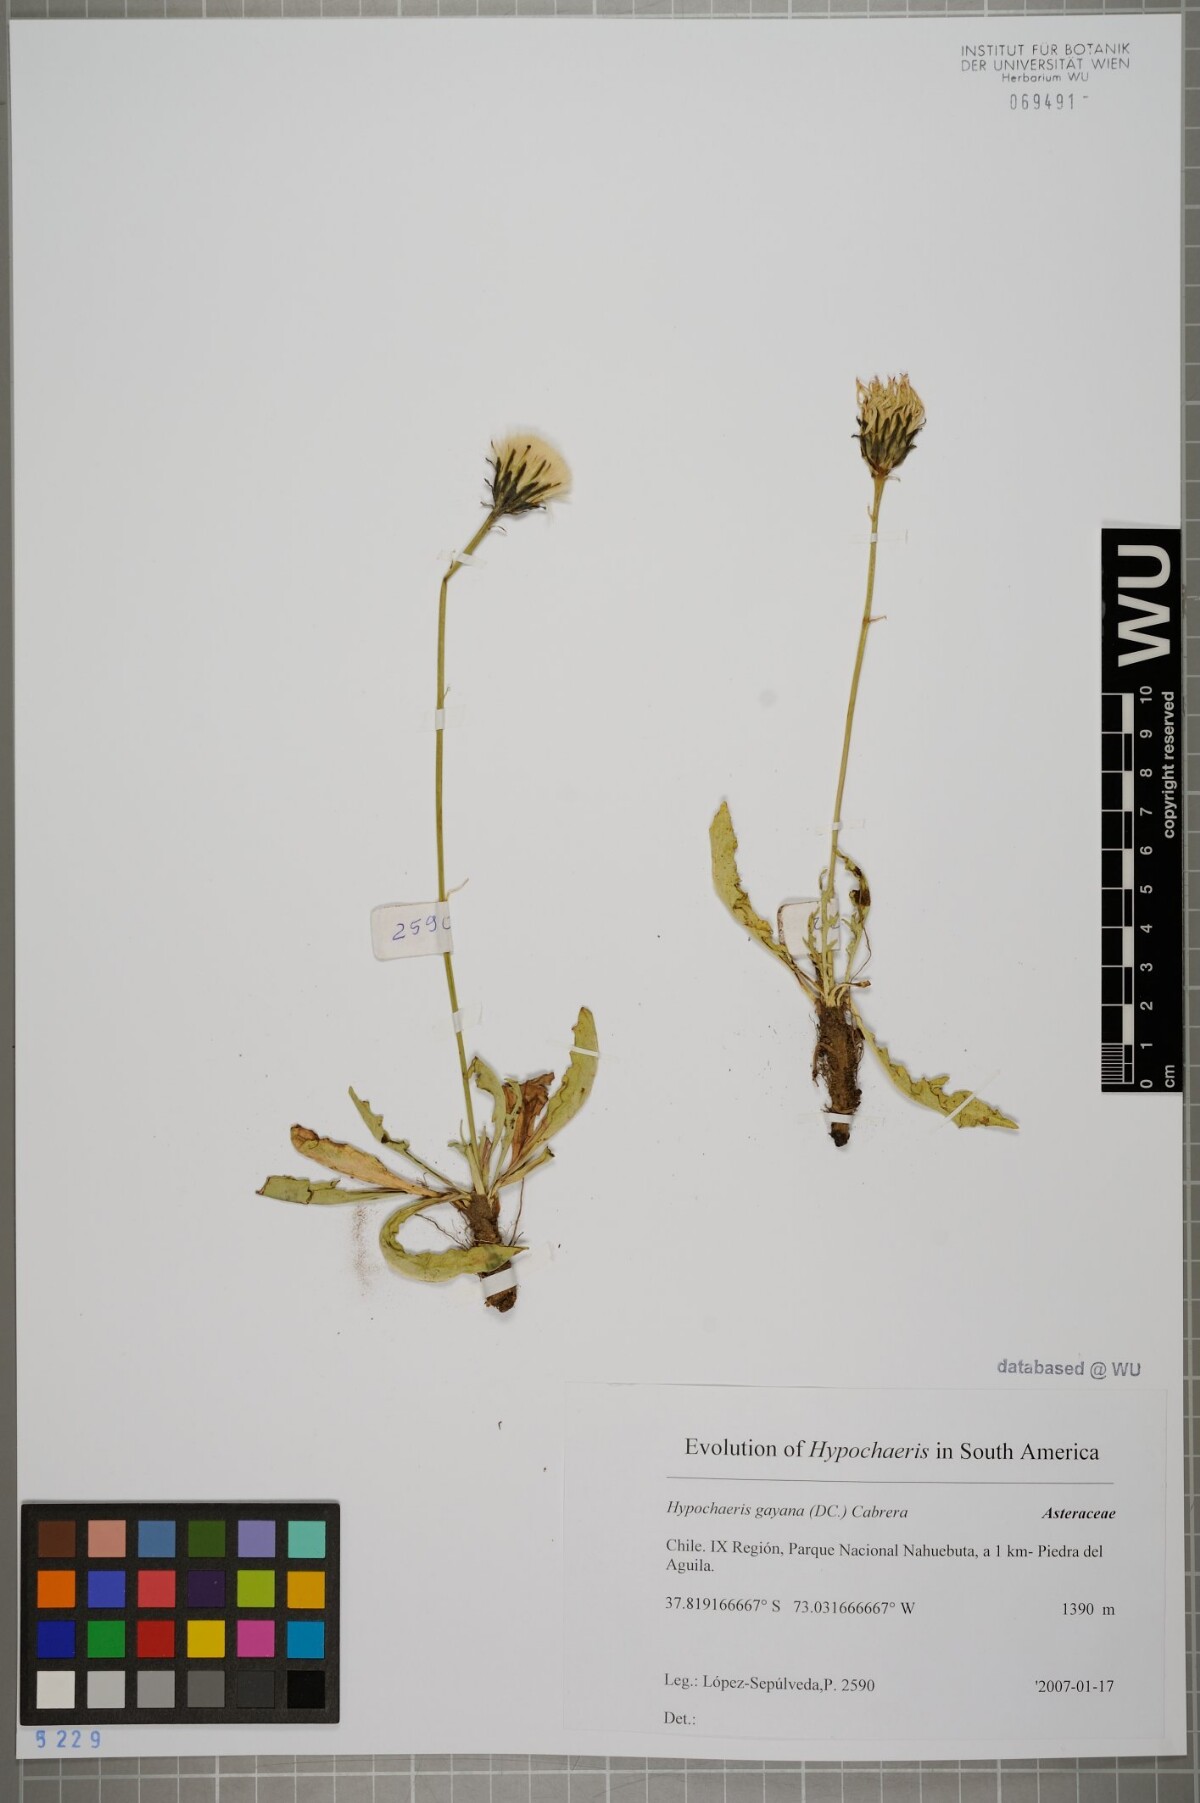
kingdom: Plantae
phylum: Tracheophyta
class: Magnoliopsida
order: Asterales
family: Asteraceae
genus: Hypochaeris
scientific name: Hypochaeris melanolepis
